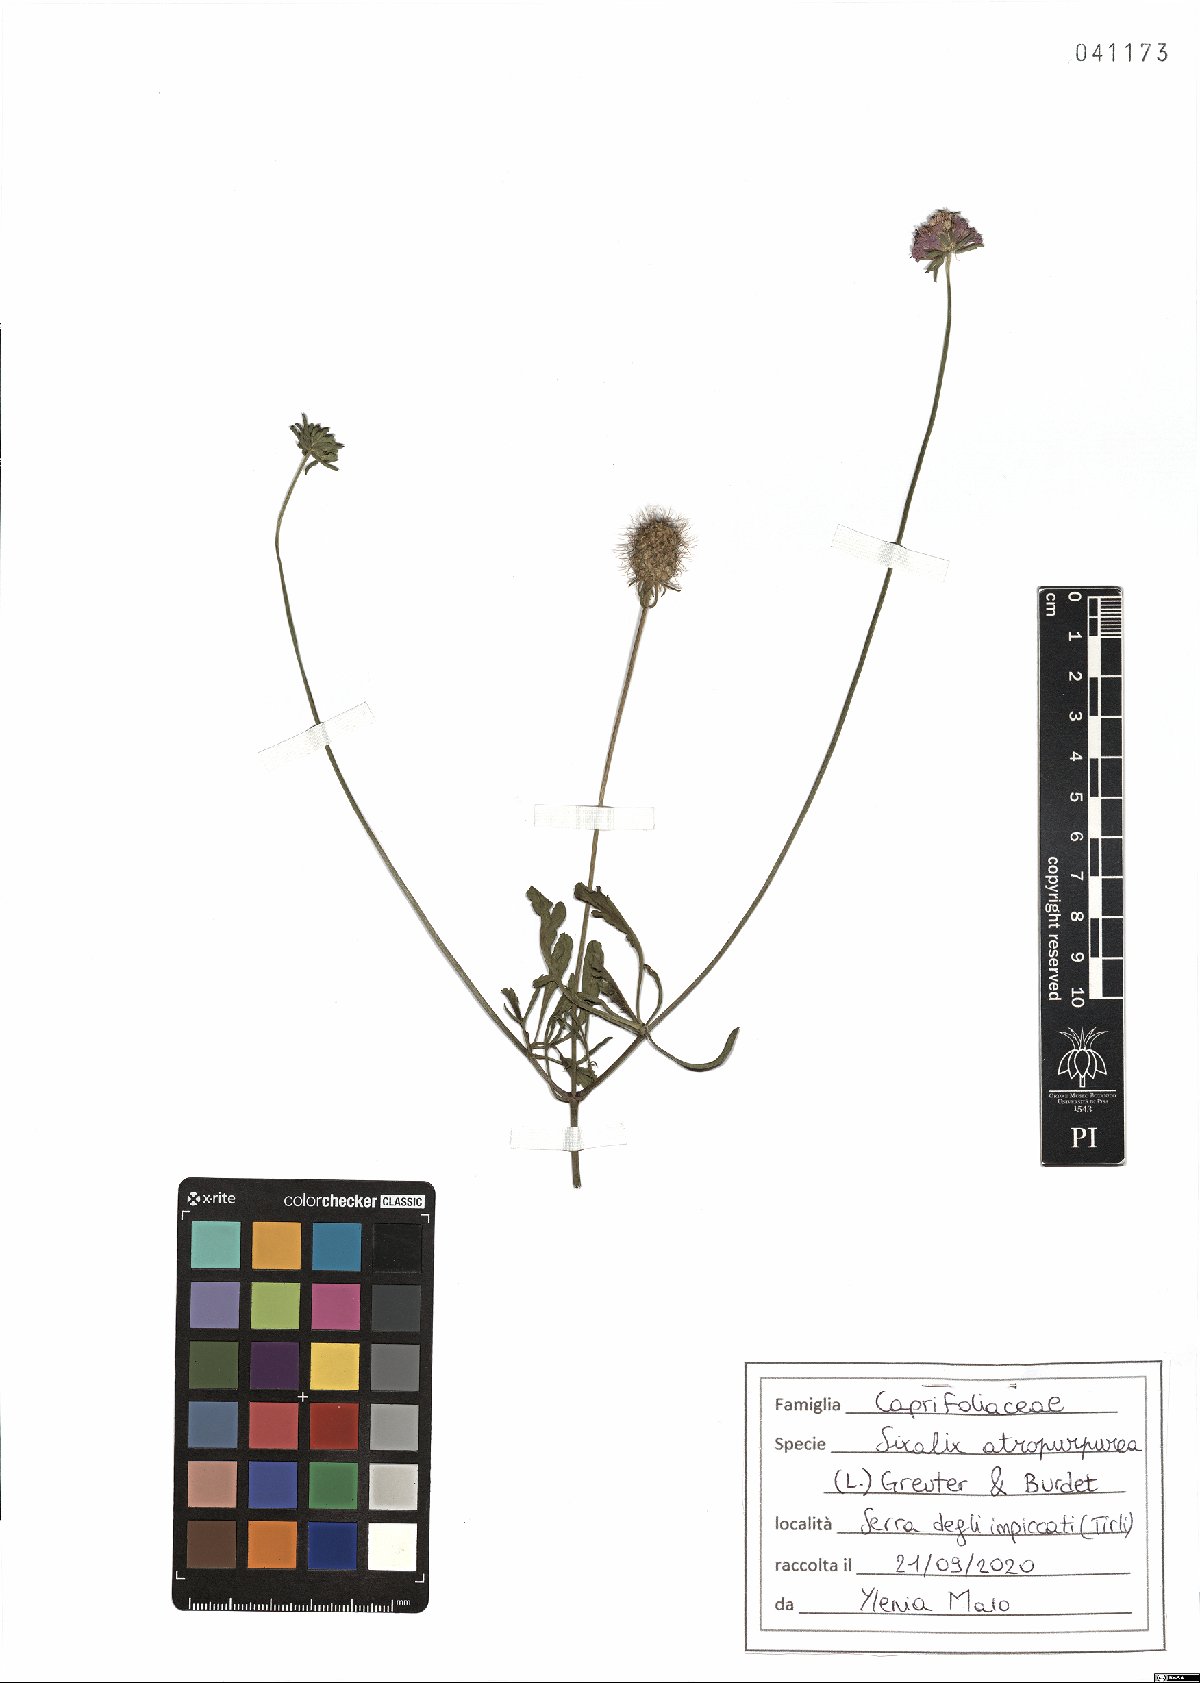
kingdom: Plantae
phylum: Tracheophyta
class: Magnoliopsida
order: Dipsacales
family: Caprifoliaceae
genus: Sixalix
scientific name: Sixalix atropurpurea
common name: Sweet scabious
